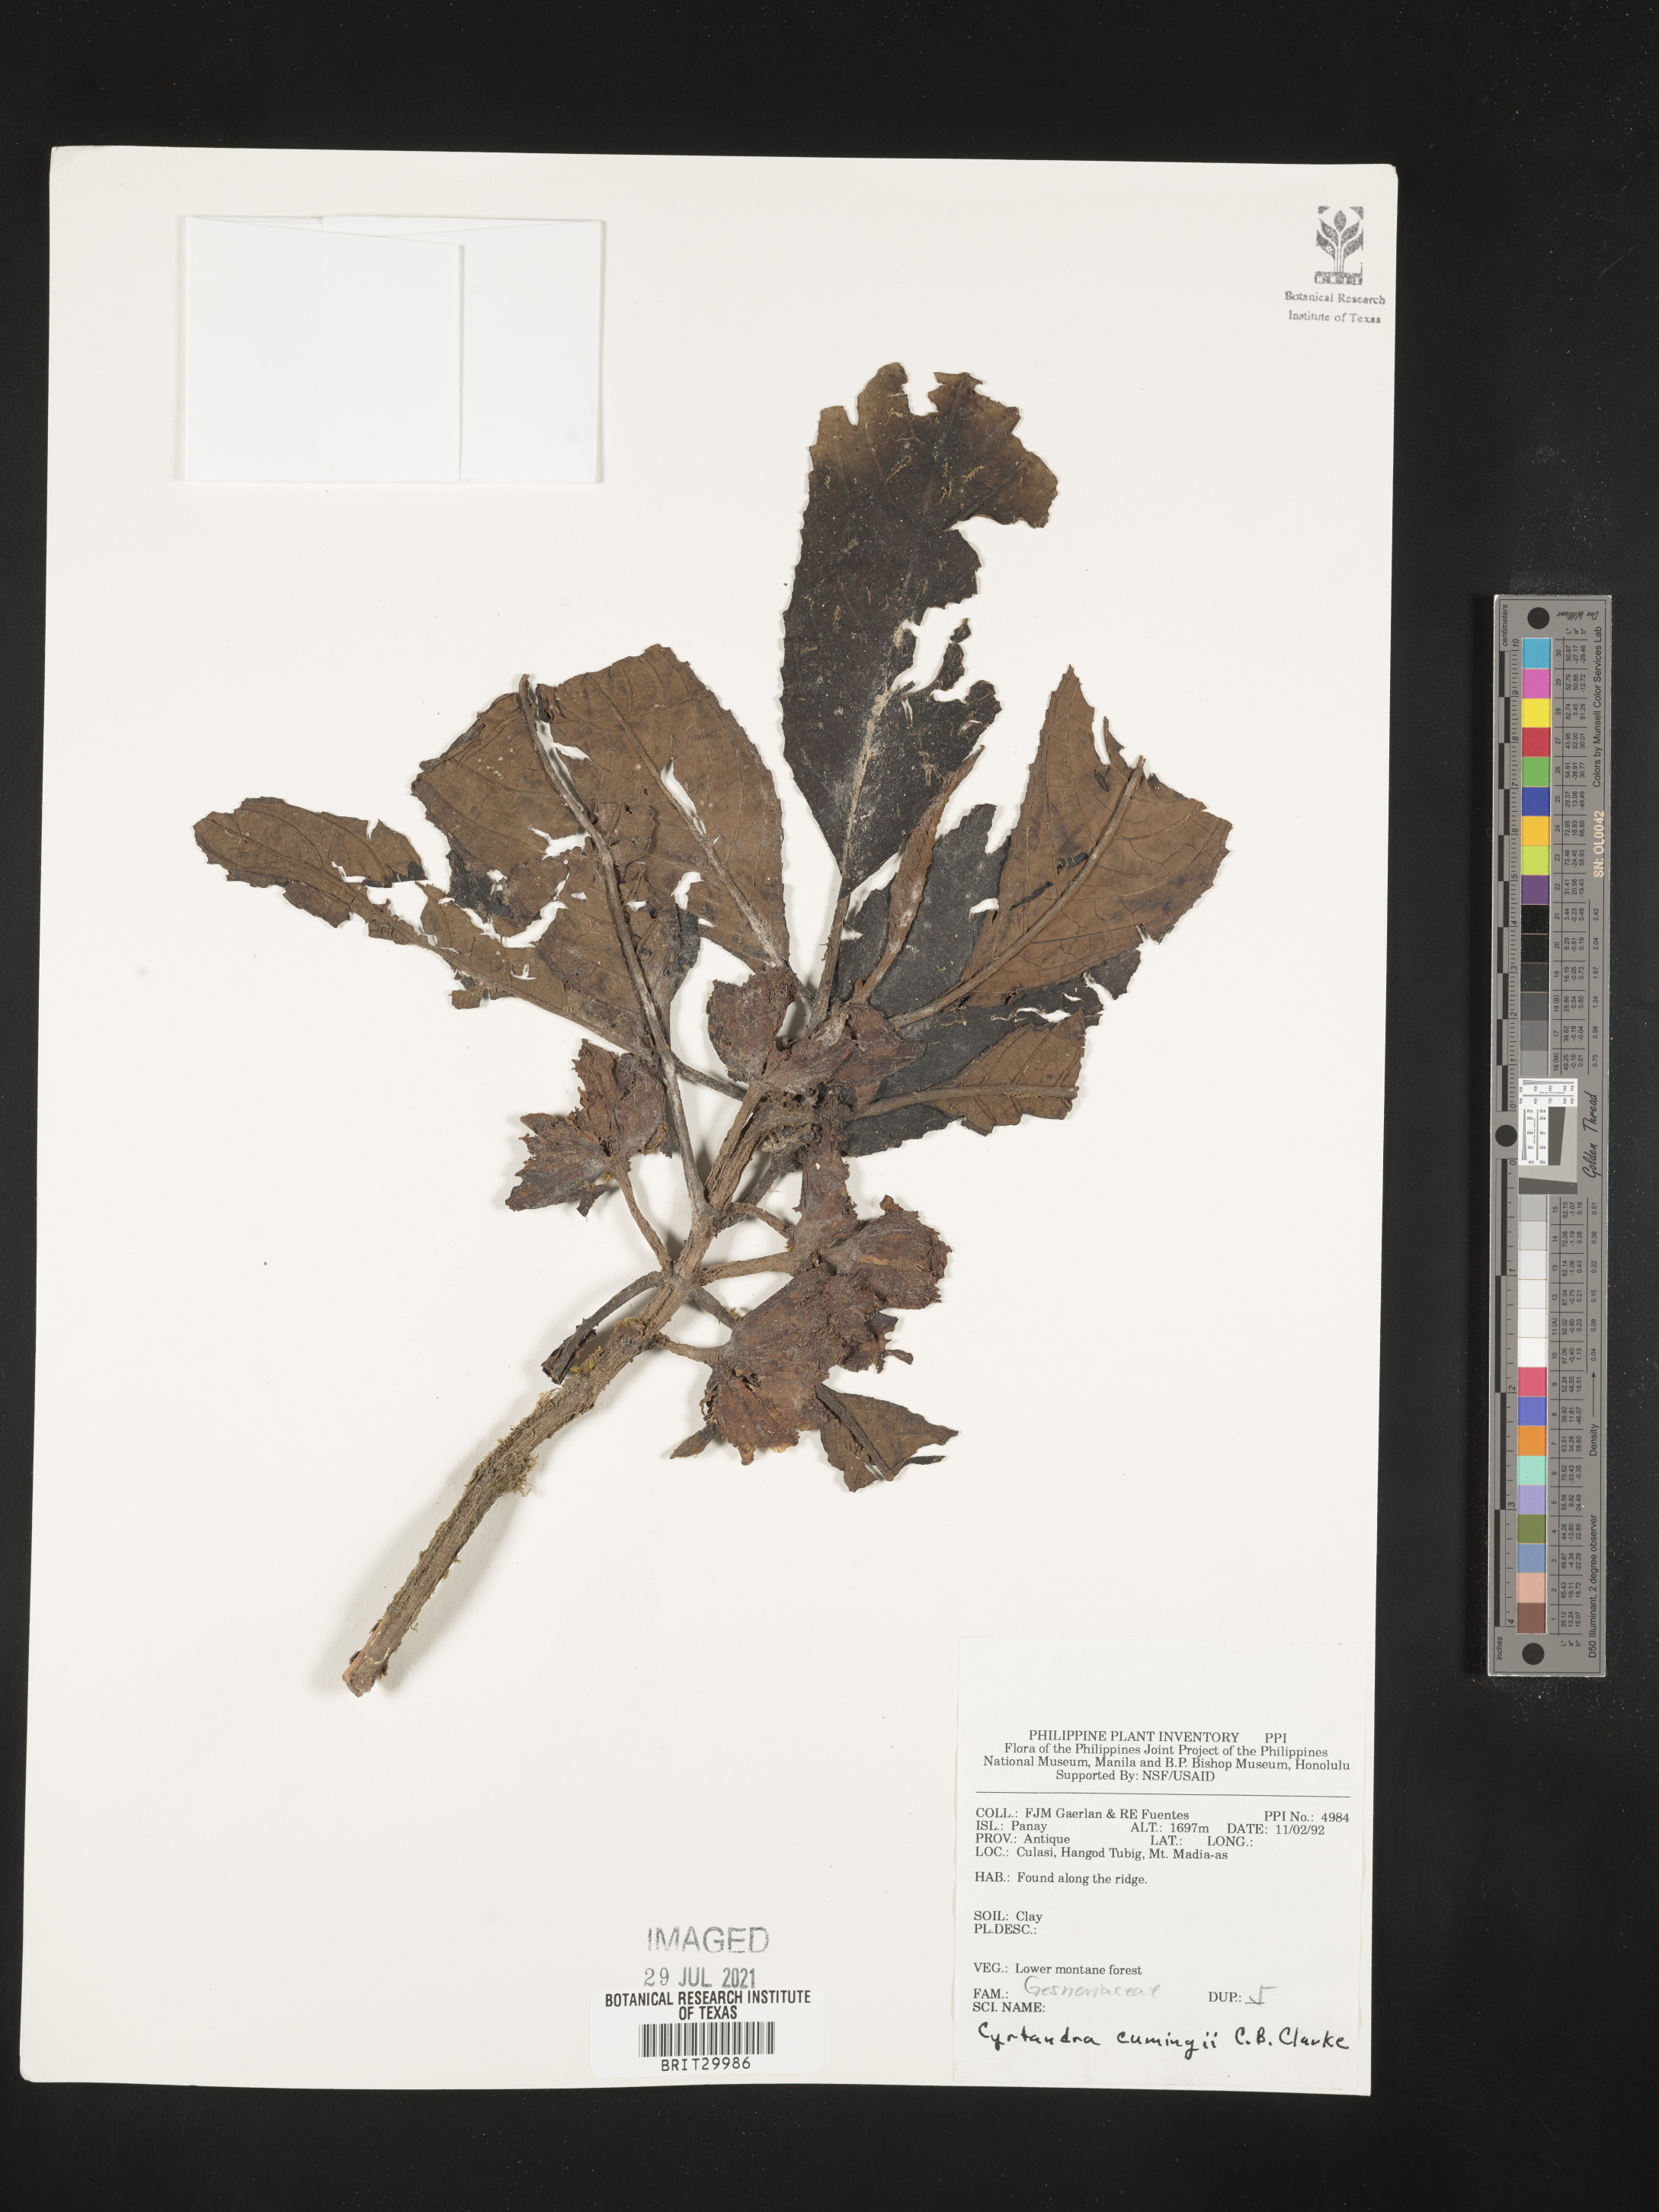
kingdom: Plantae
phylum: Tracheophyta
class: Magnoliopsida
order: Lamiales
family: Gesneriaceae
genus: Cyrtandra
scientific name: Cyrtandra cumingii
